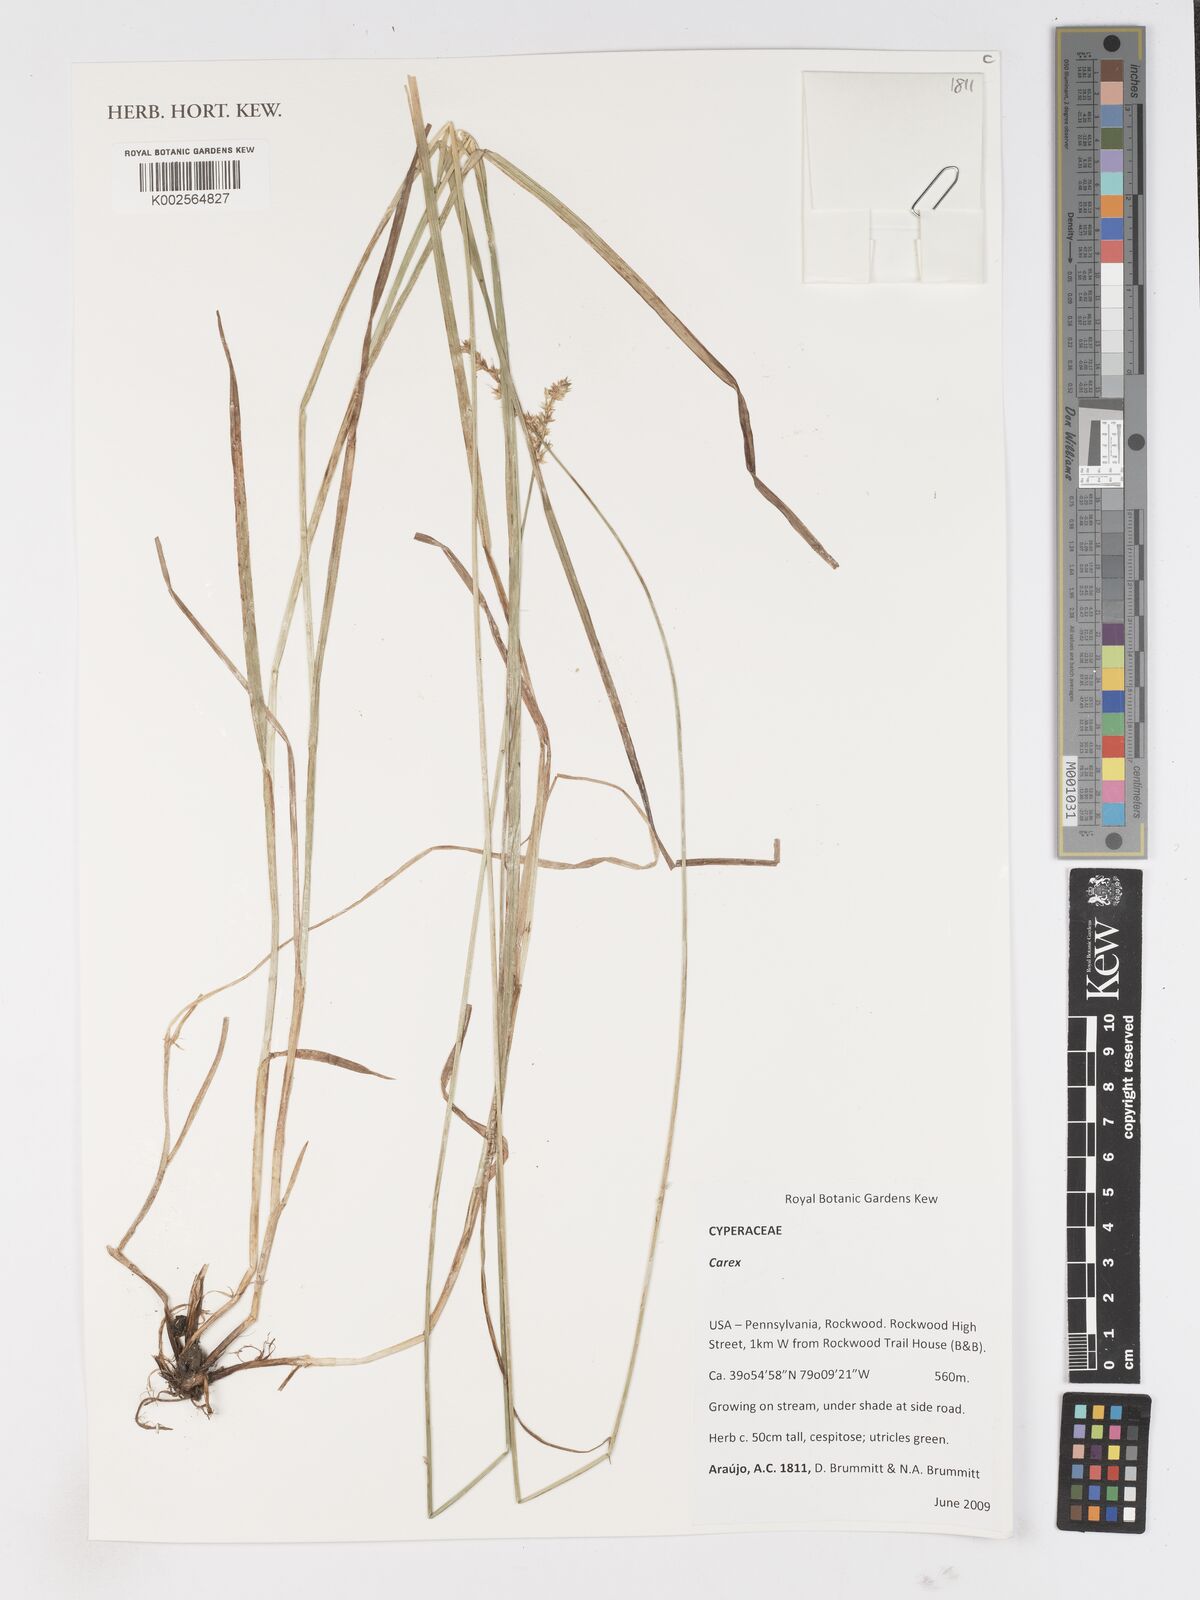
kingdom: Plantae
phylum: Tracheophyta
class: Liliopsida
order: Poales
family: Cyperaceae
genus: Carex
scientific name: Carex
